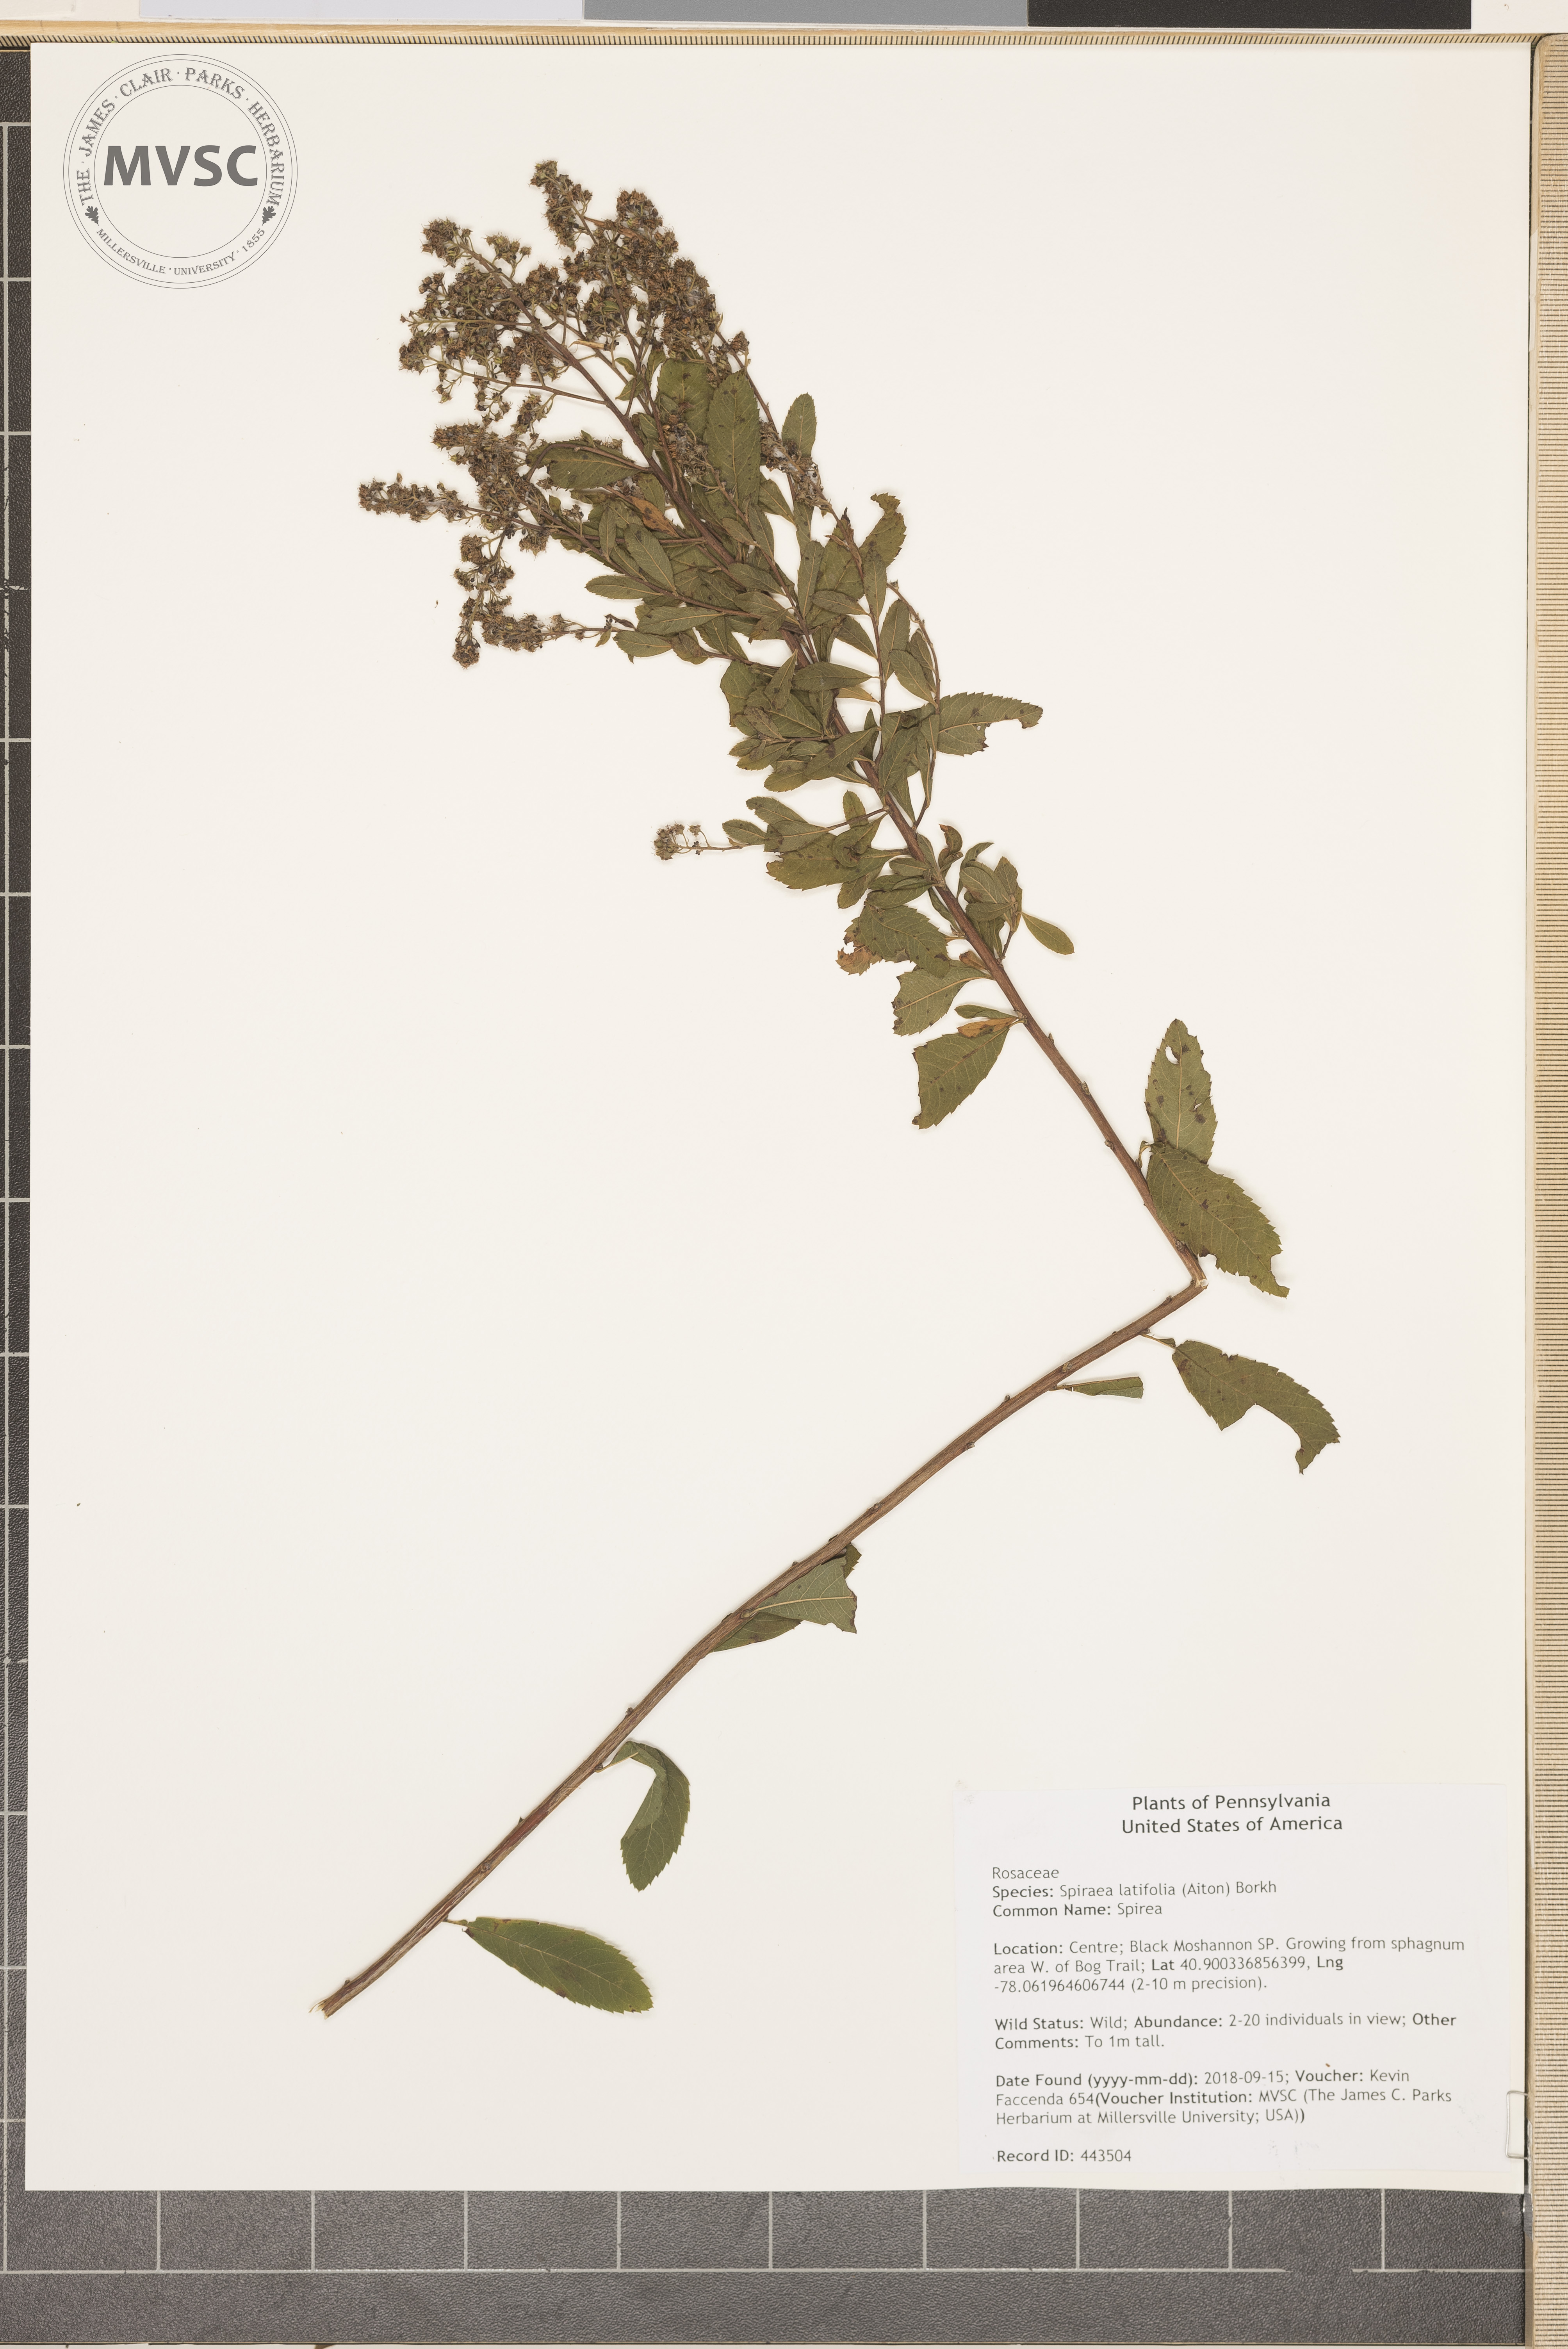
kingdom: Plantae
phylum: Tracheophyta
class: Magnoliopsida
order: Rosales
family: Rosaceae
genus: Spiraea
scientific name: Spiraea alba
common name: Spirea
